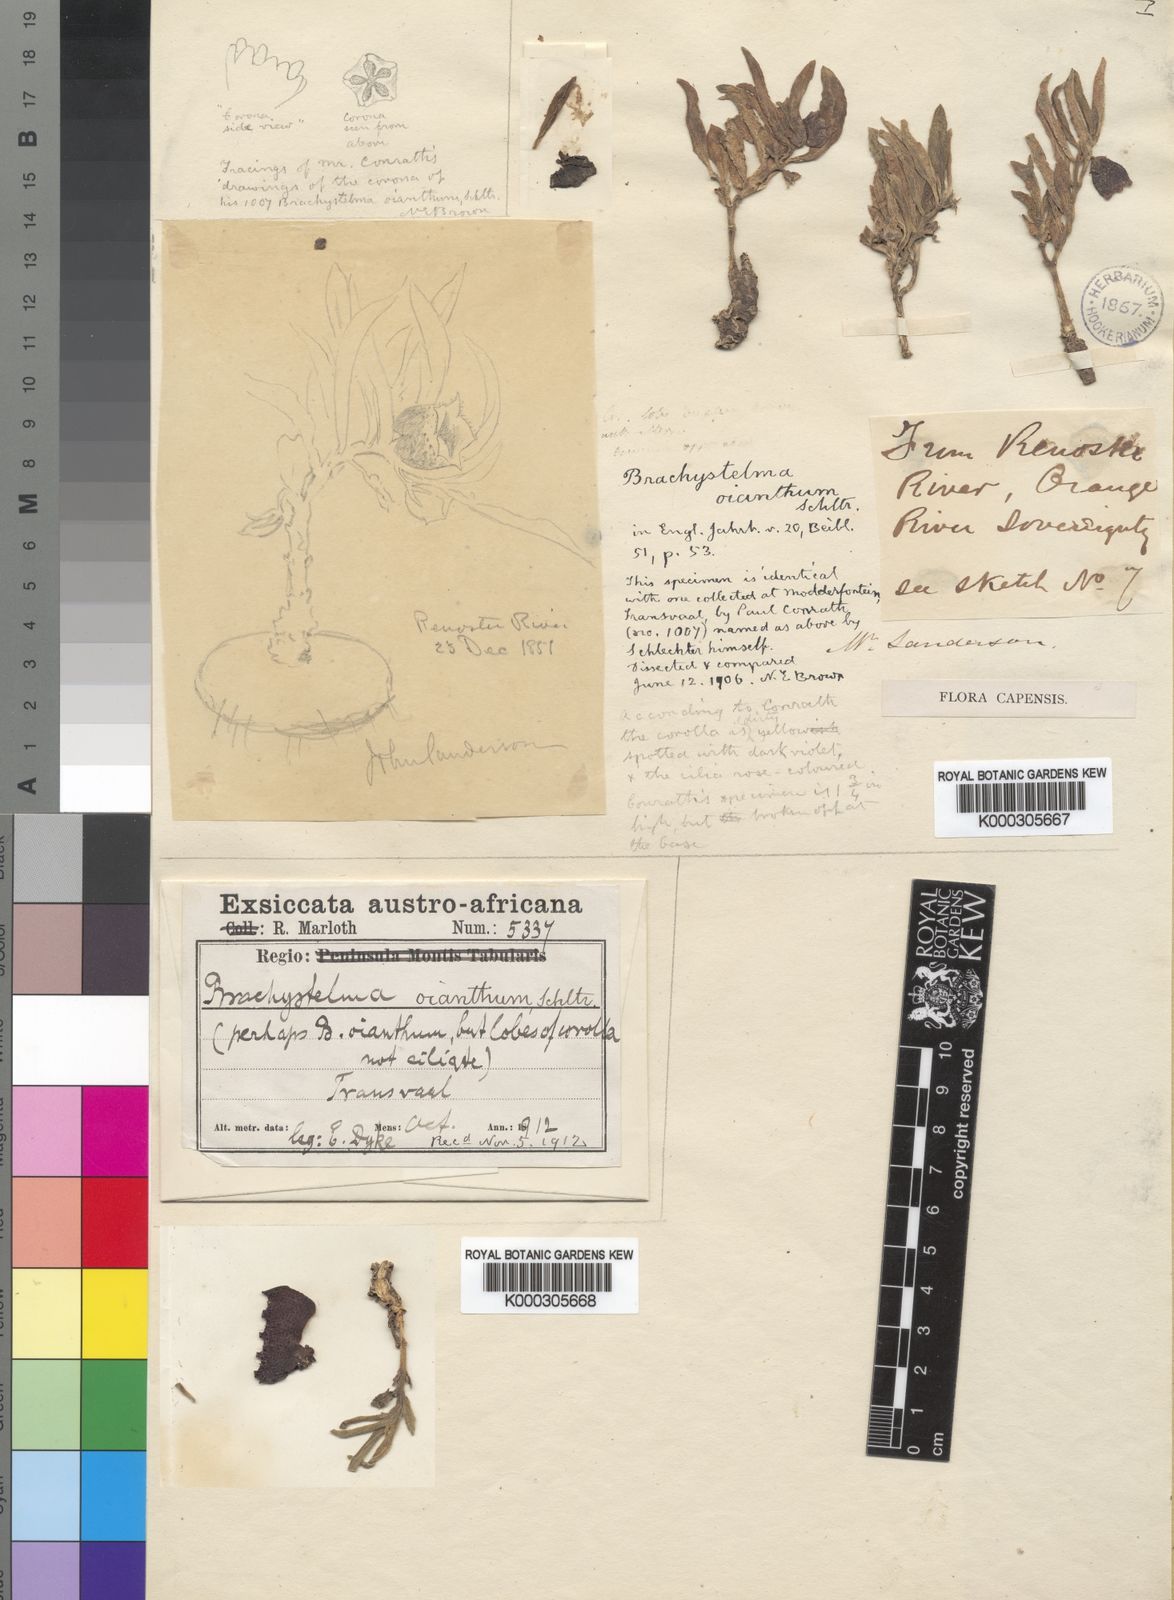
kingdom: Plantae
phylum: Tracheophyta
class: Magnoliopsida
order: Gentianales
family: Apocynaceae
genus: Ceropegia
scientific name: Ceropegia oiantha
